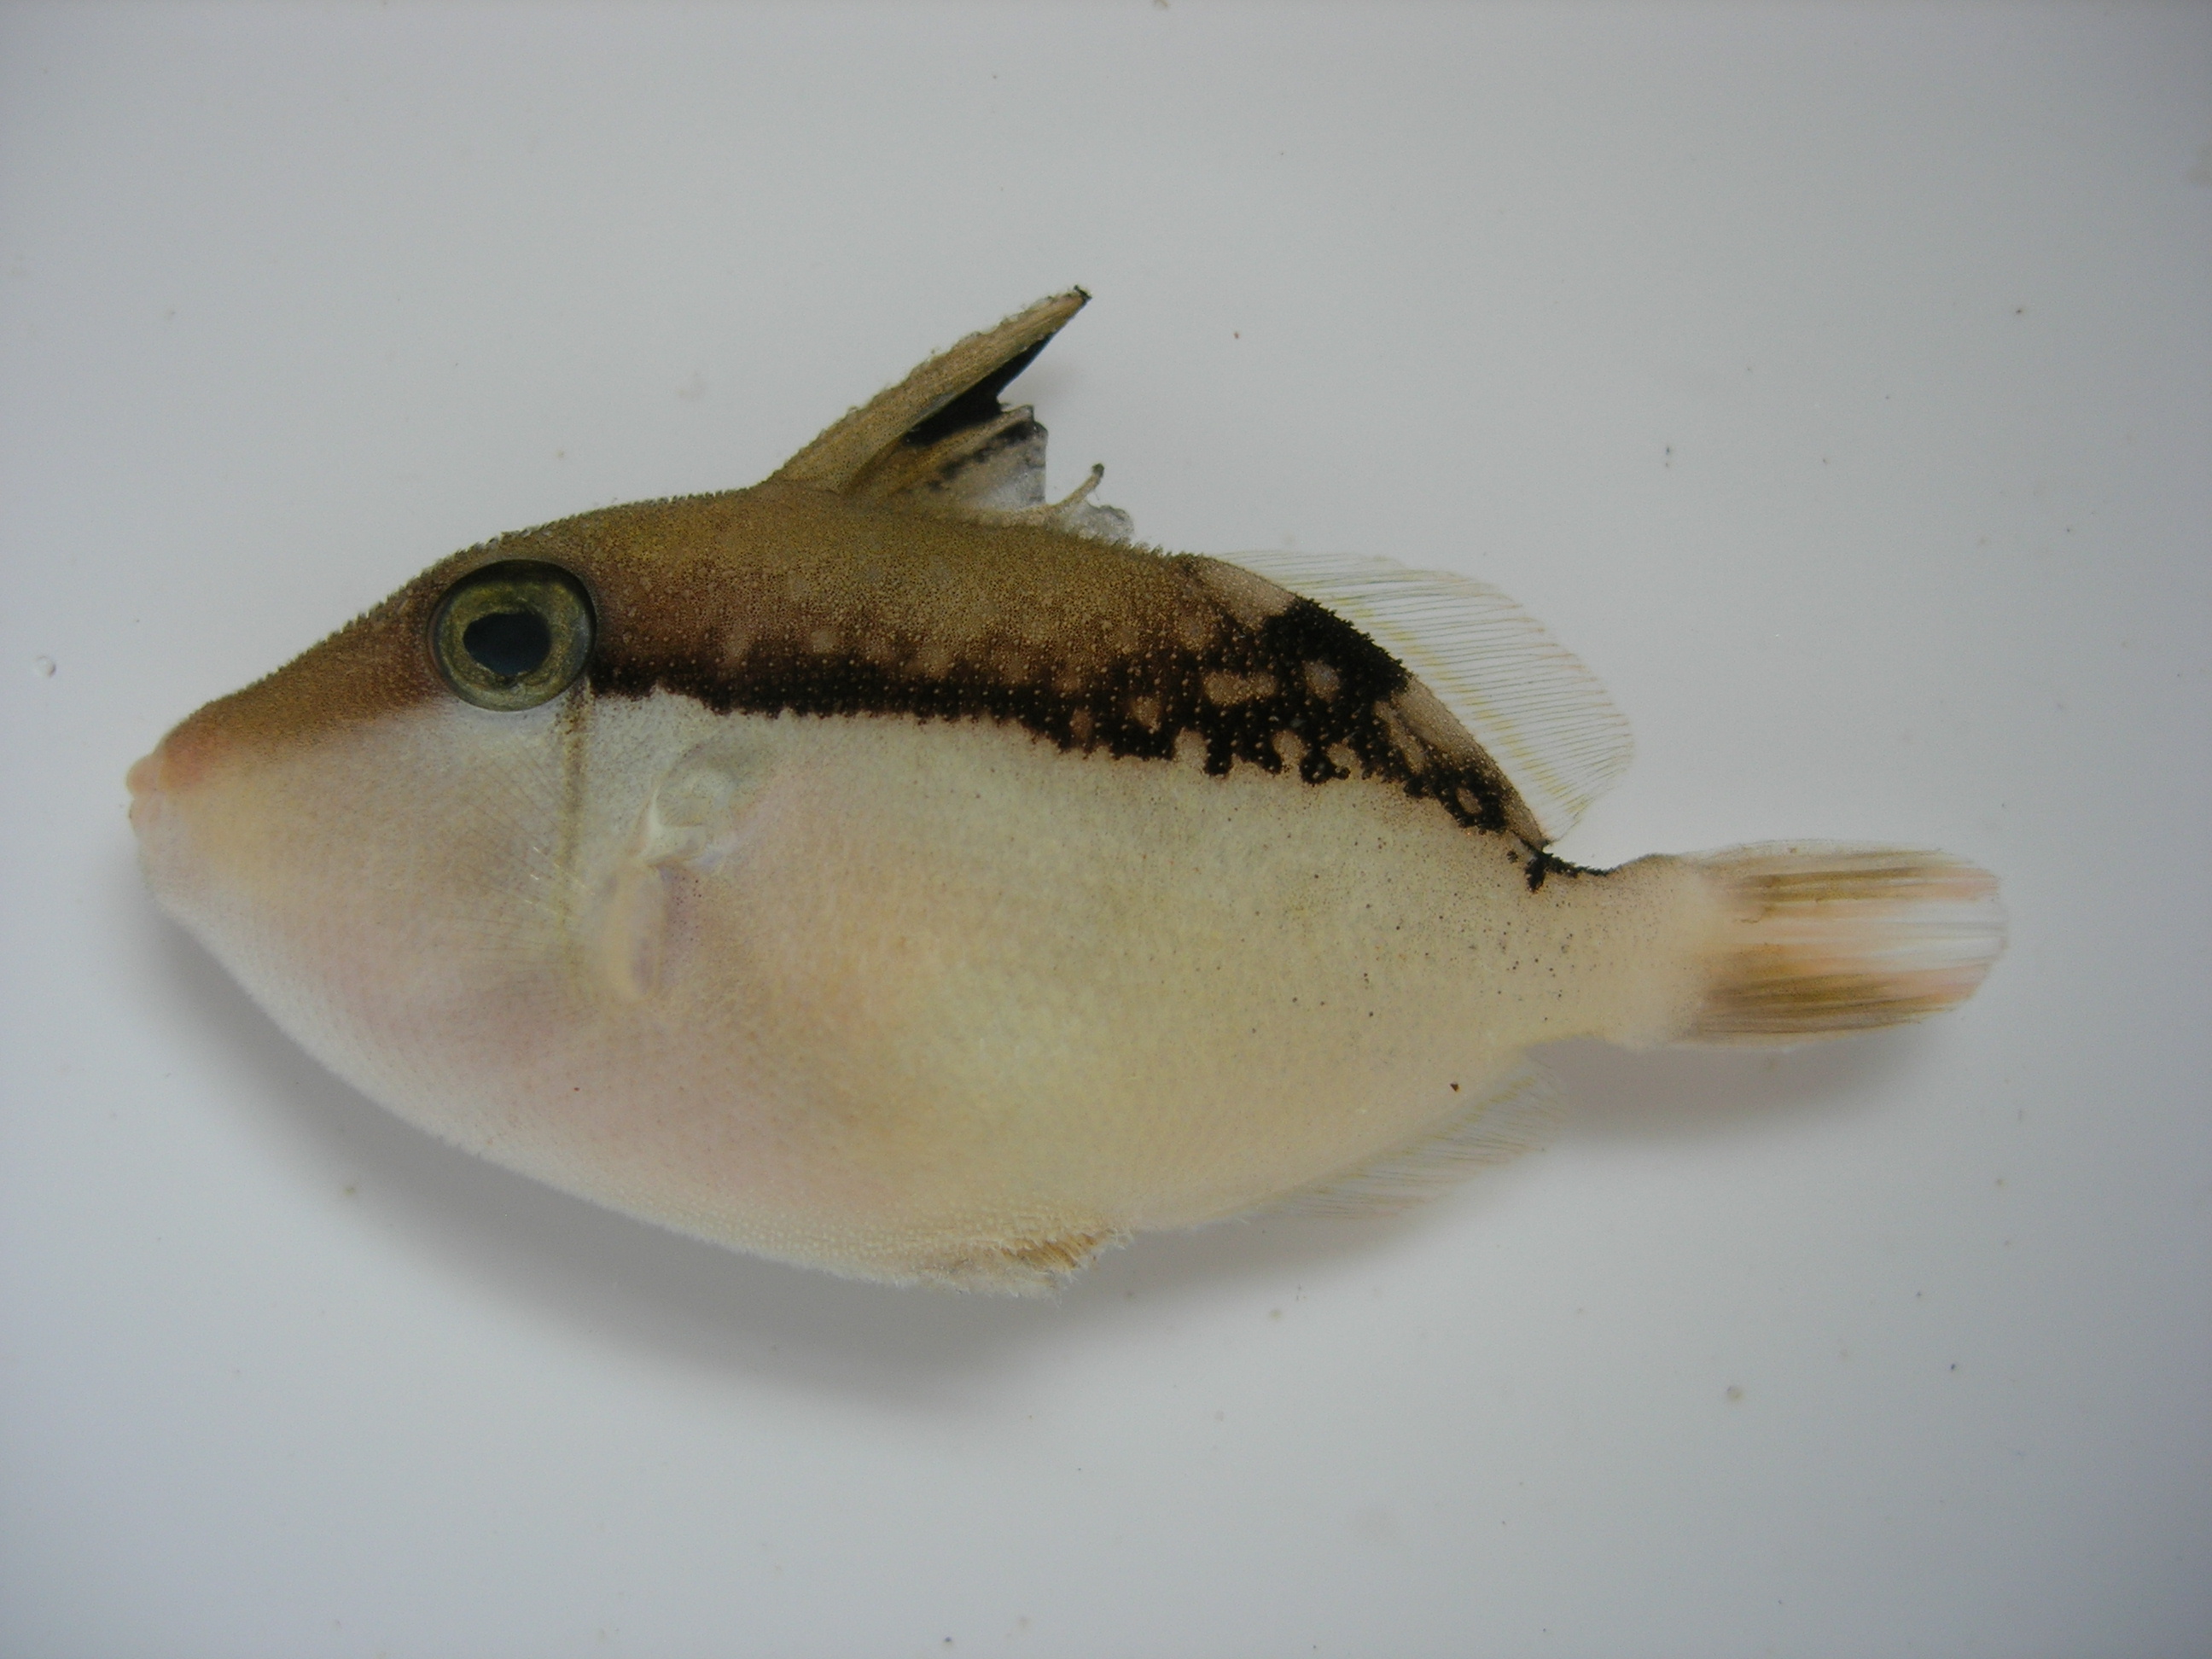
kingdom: Animalia
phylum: Chordata
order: Tetraodontiformes
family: Balistidae
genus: Sufflamen
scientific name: Sufflamen chrysopterum
